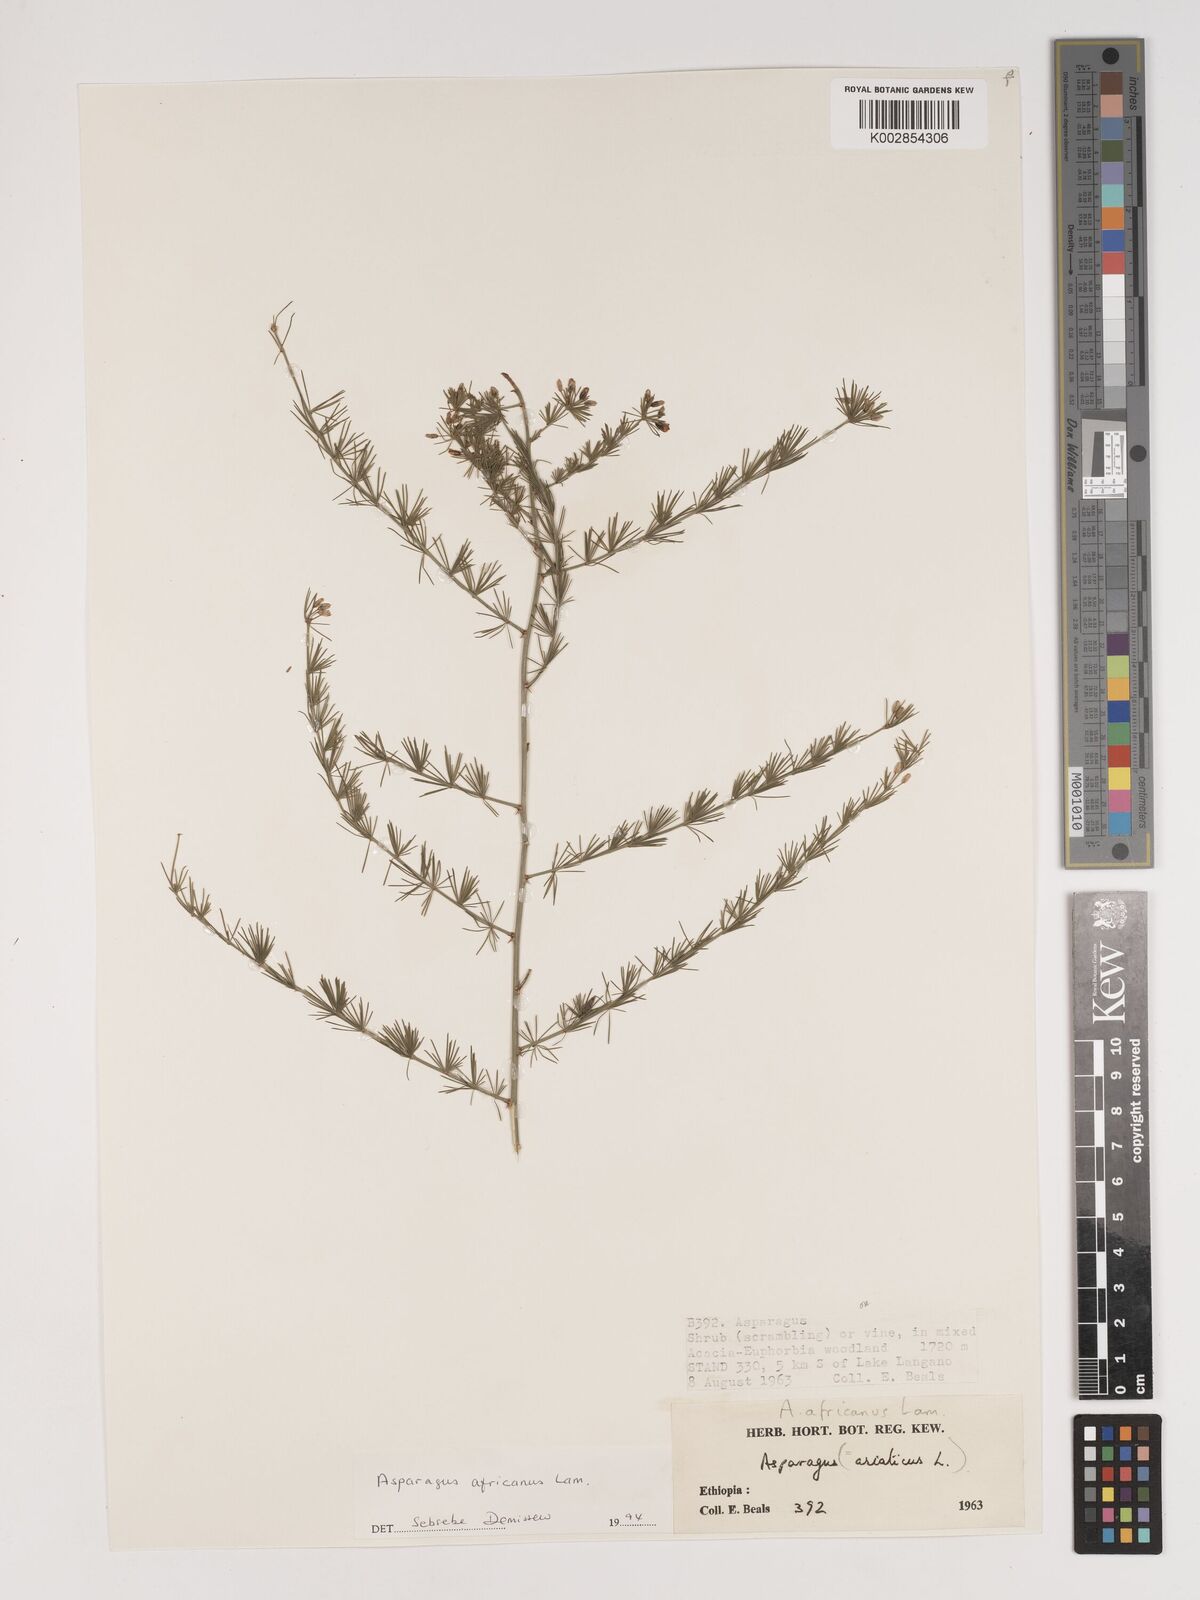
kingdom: Plantae
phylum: Tracheophyta
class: Liliopsida
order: Asparagales
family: Asparagaceae
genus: Asparagus
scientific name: Asparagus africanus
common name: Asparagus-fern
